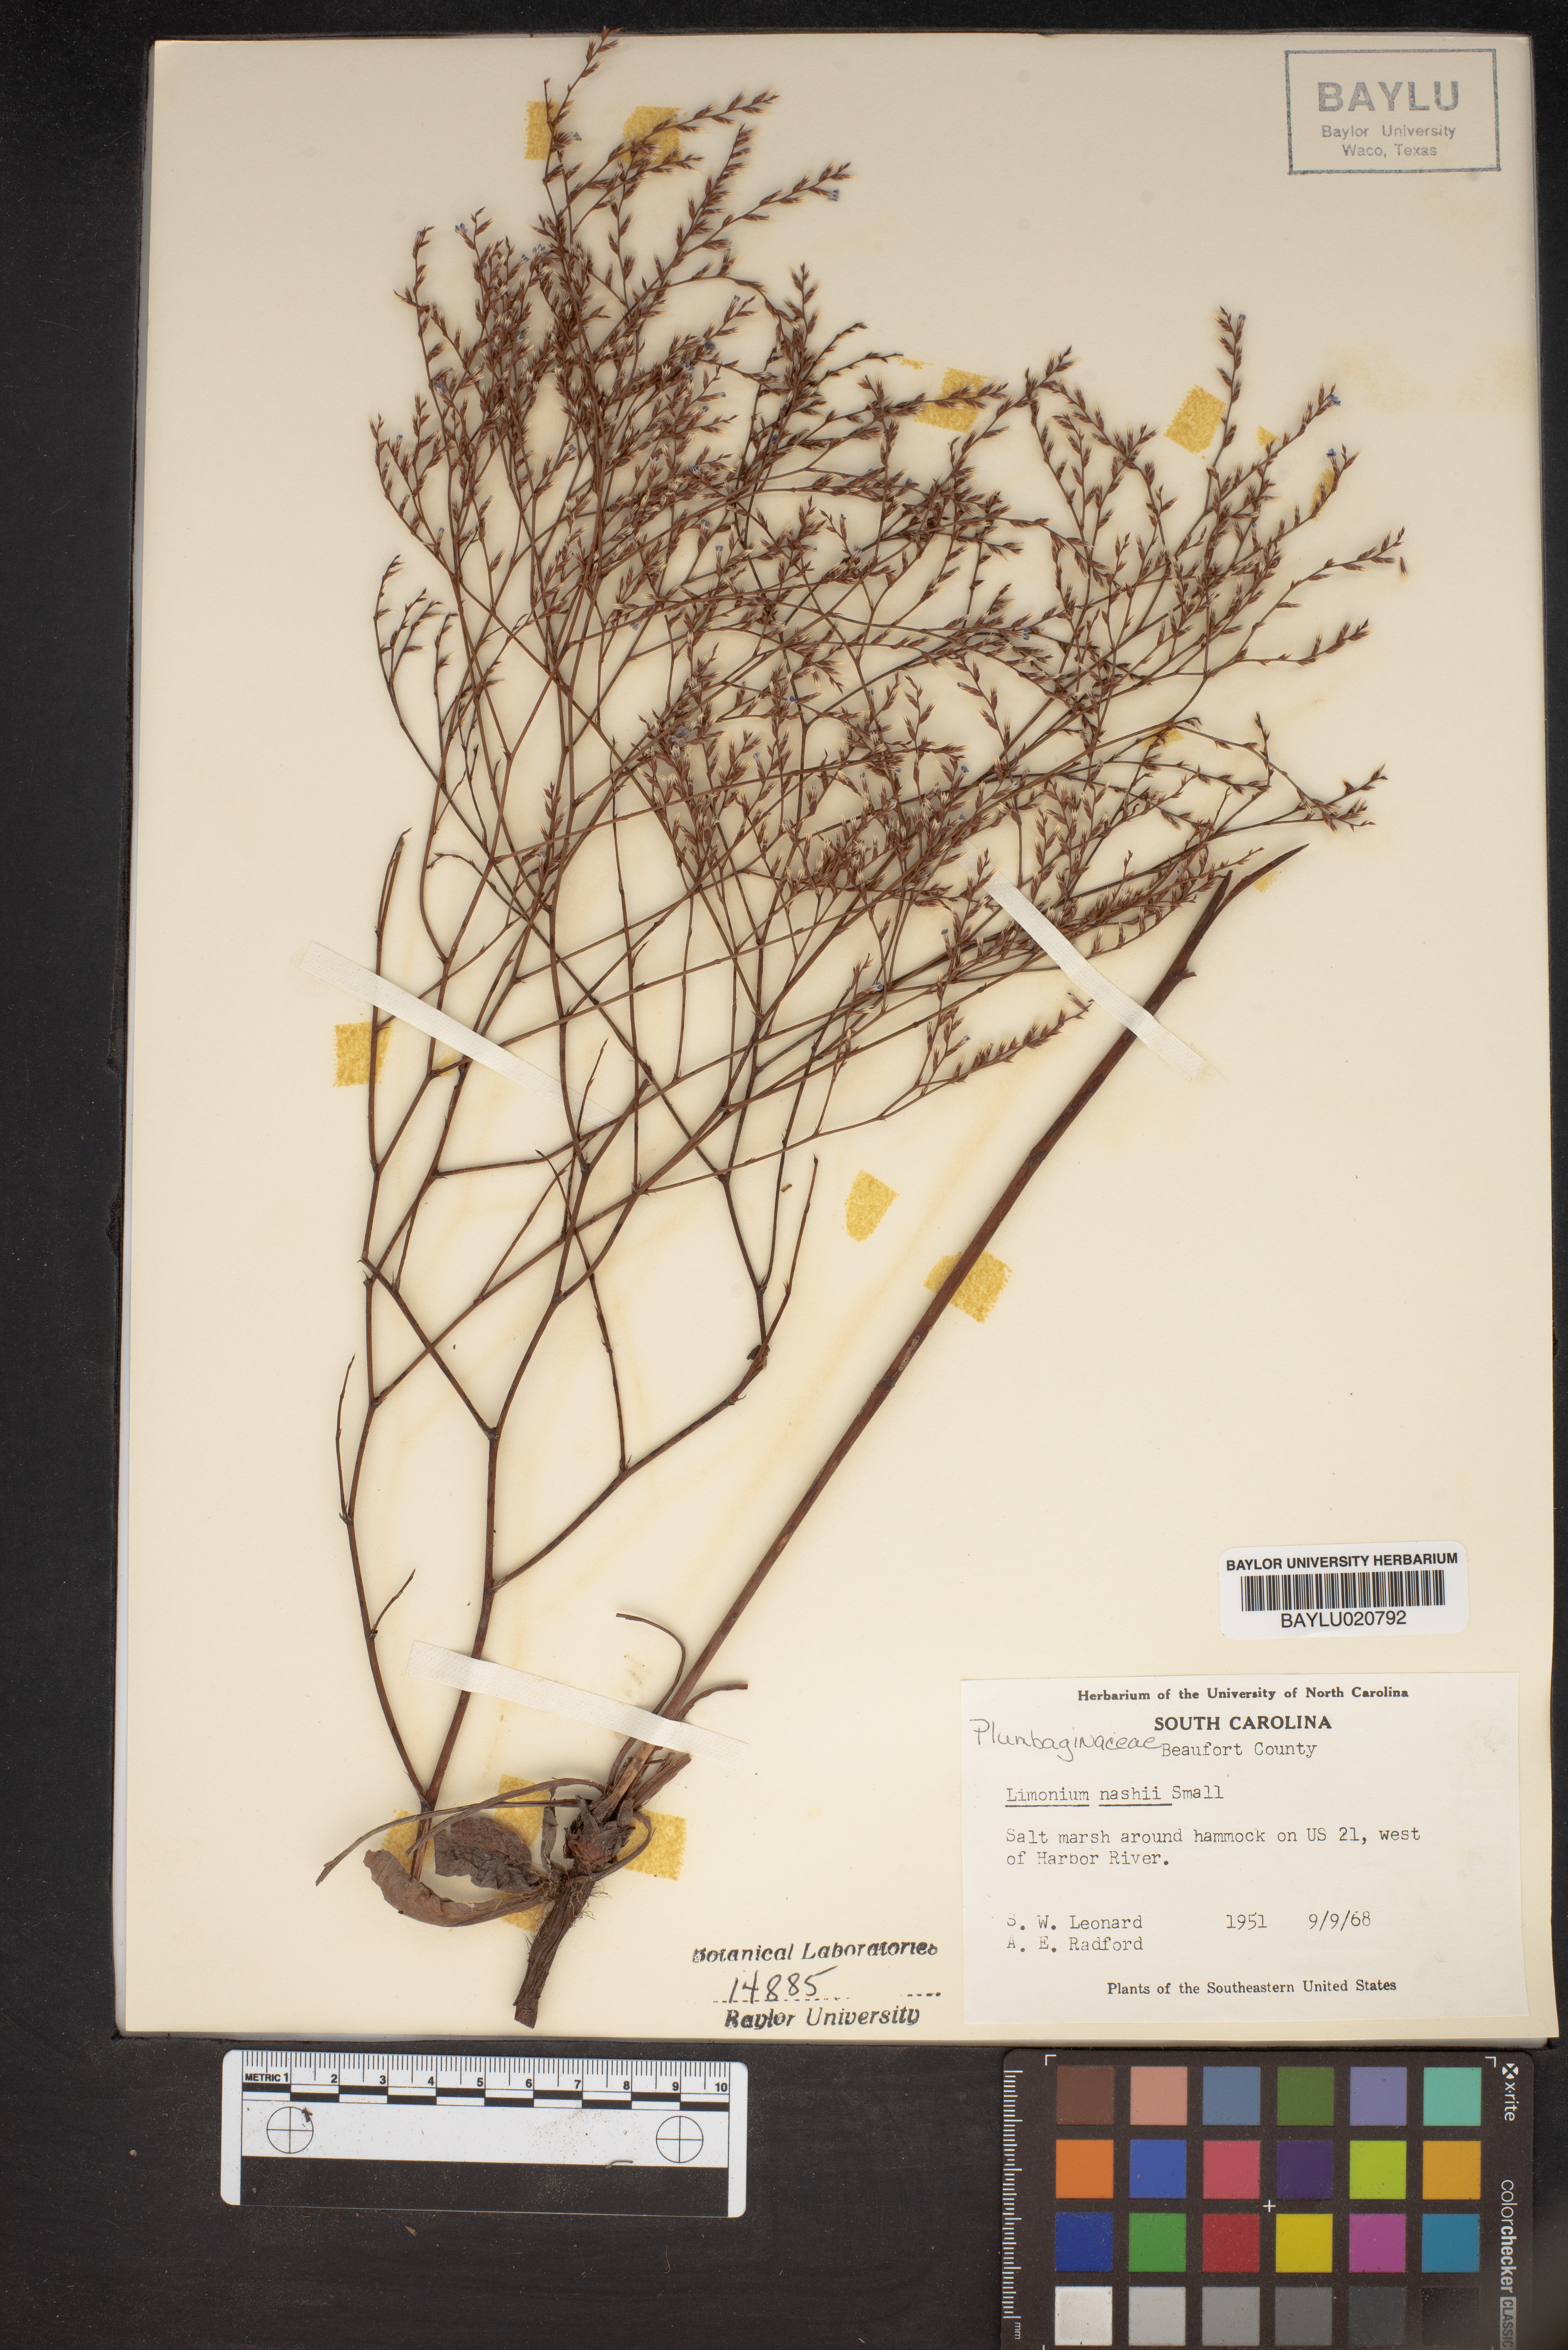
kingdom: Plantae
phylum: Tracheophyta
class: Magnoliopsida
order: Caryophyllales
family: Plumbaginaceae
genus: Limonium
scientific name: Limonium carolinianum
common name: Carolina sea lavender
